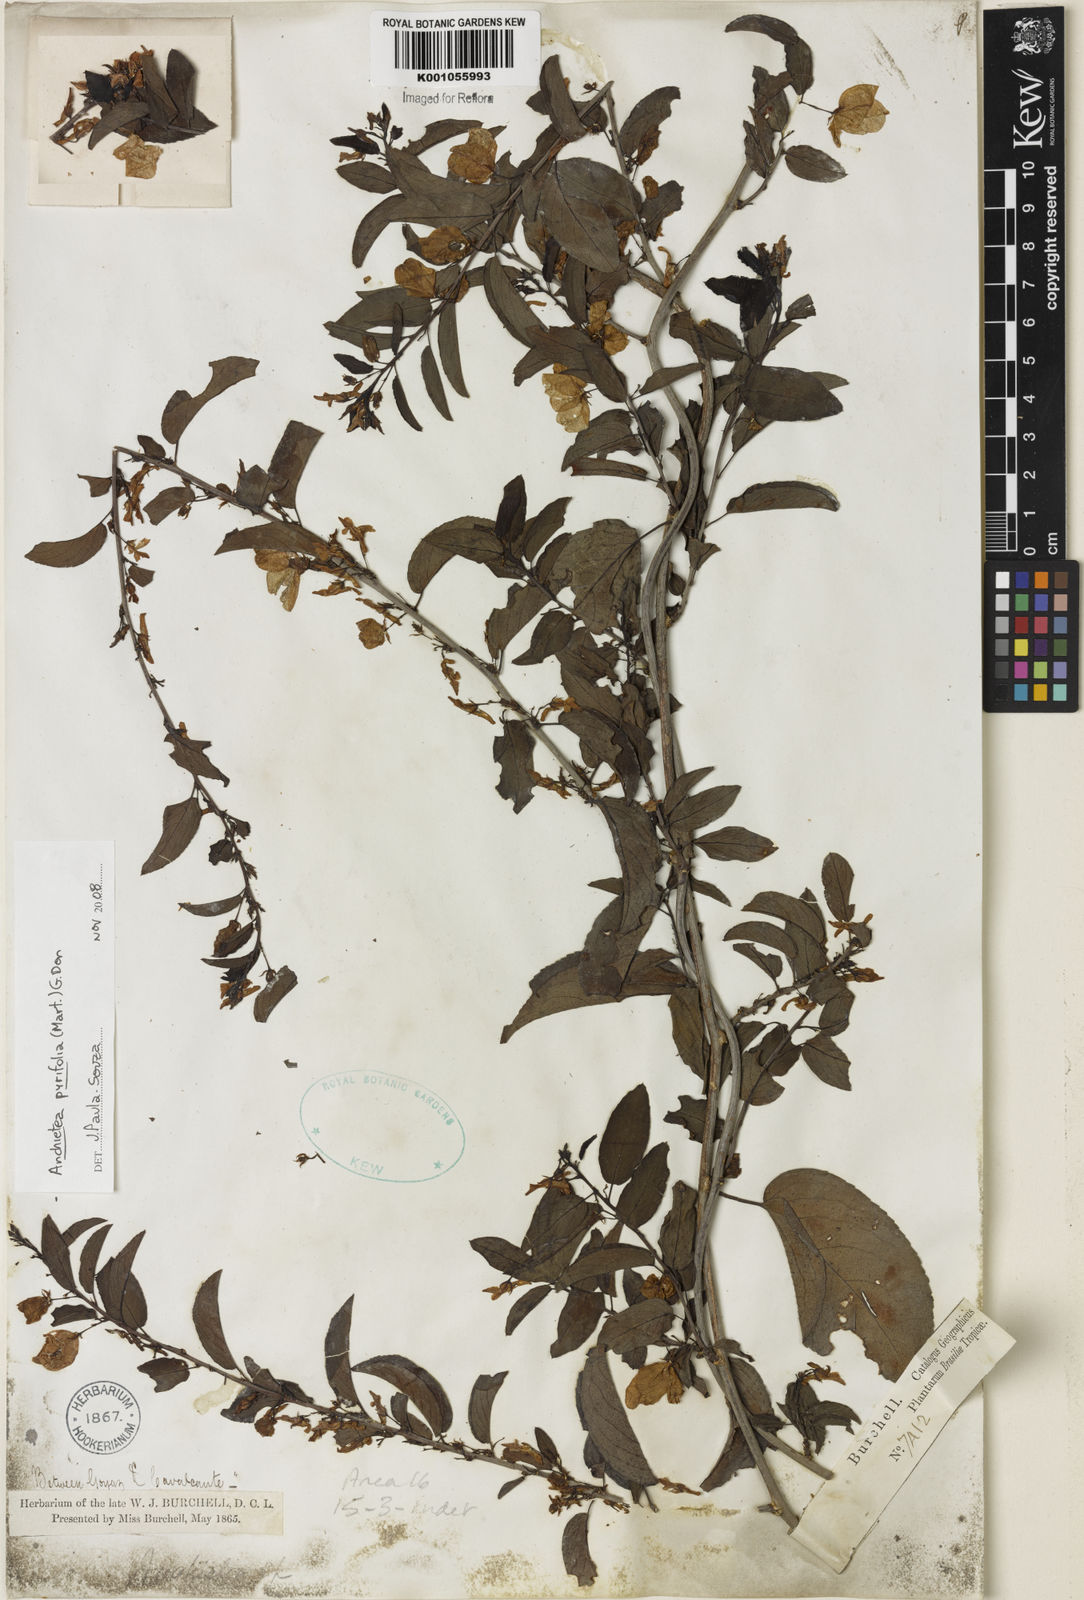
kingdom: Plantae
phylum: Tracheophyta
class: Magnoliopsida
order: Malpighiales
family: Violaceae
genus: Anchietea
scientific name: Anchietea pyrifolia
